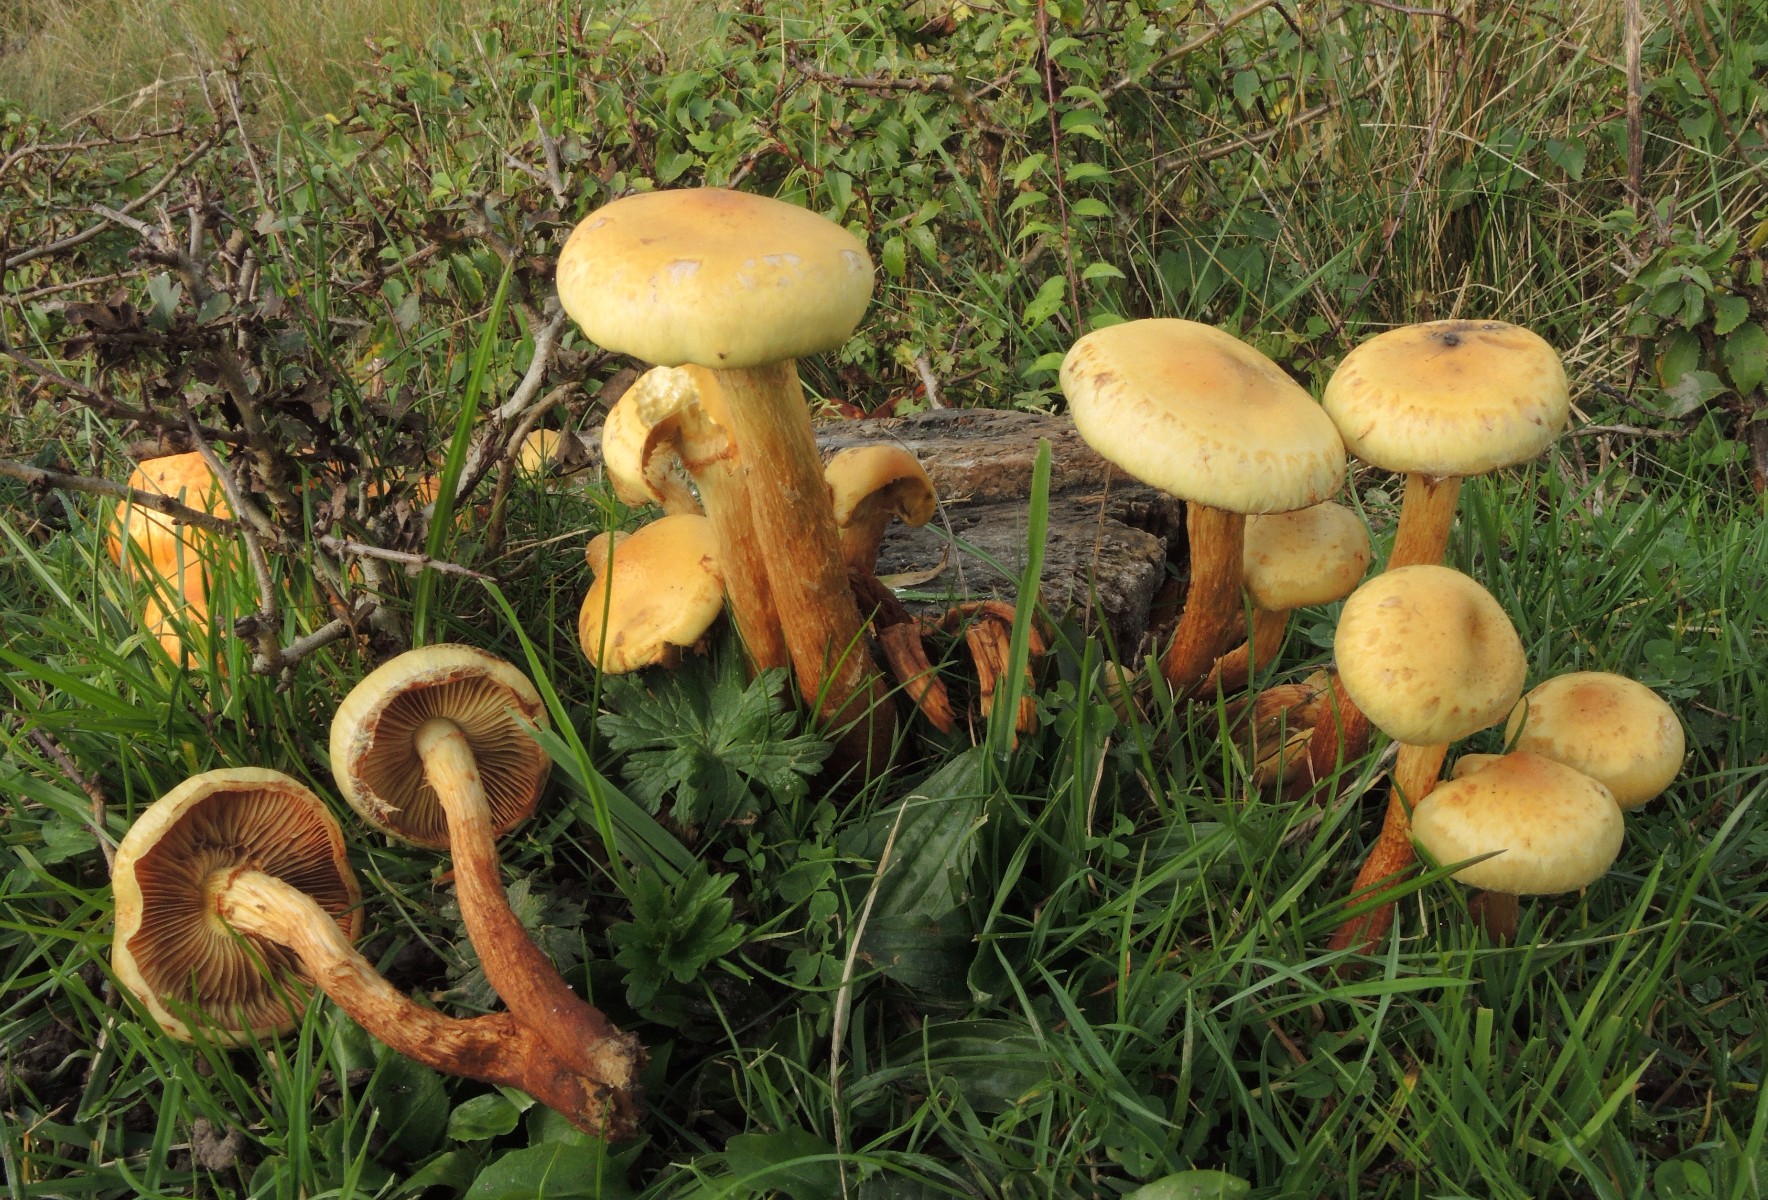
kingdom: Fungi
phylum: Basidiomycota
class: Agaricomycetes
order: Agaricales
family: Hymenogastraceae
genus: Flammula
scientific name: Flammula alnicola
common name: elle-skælhat
